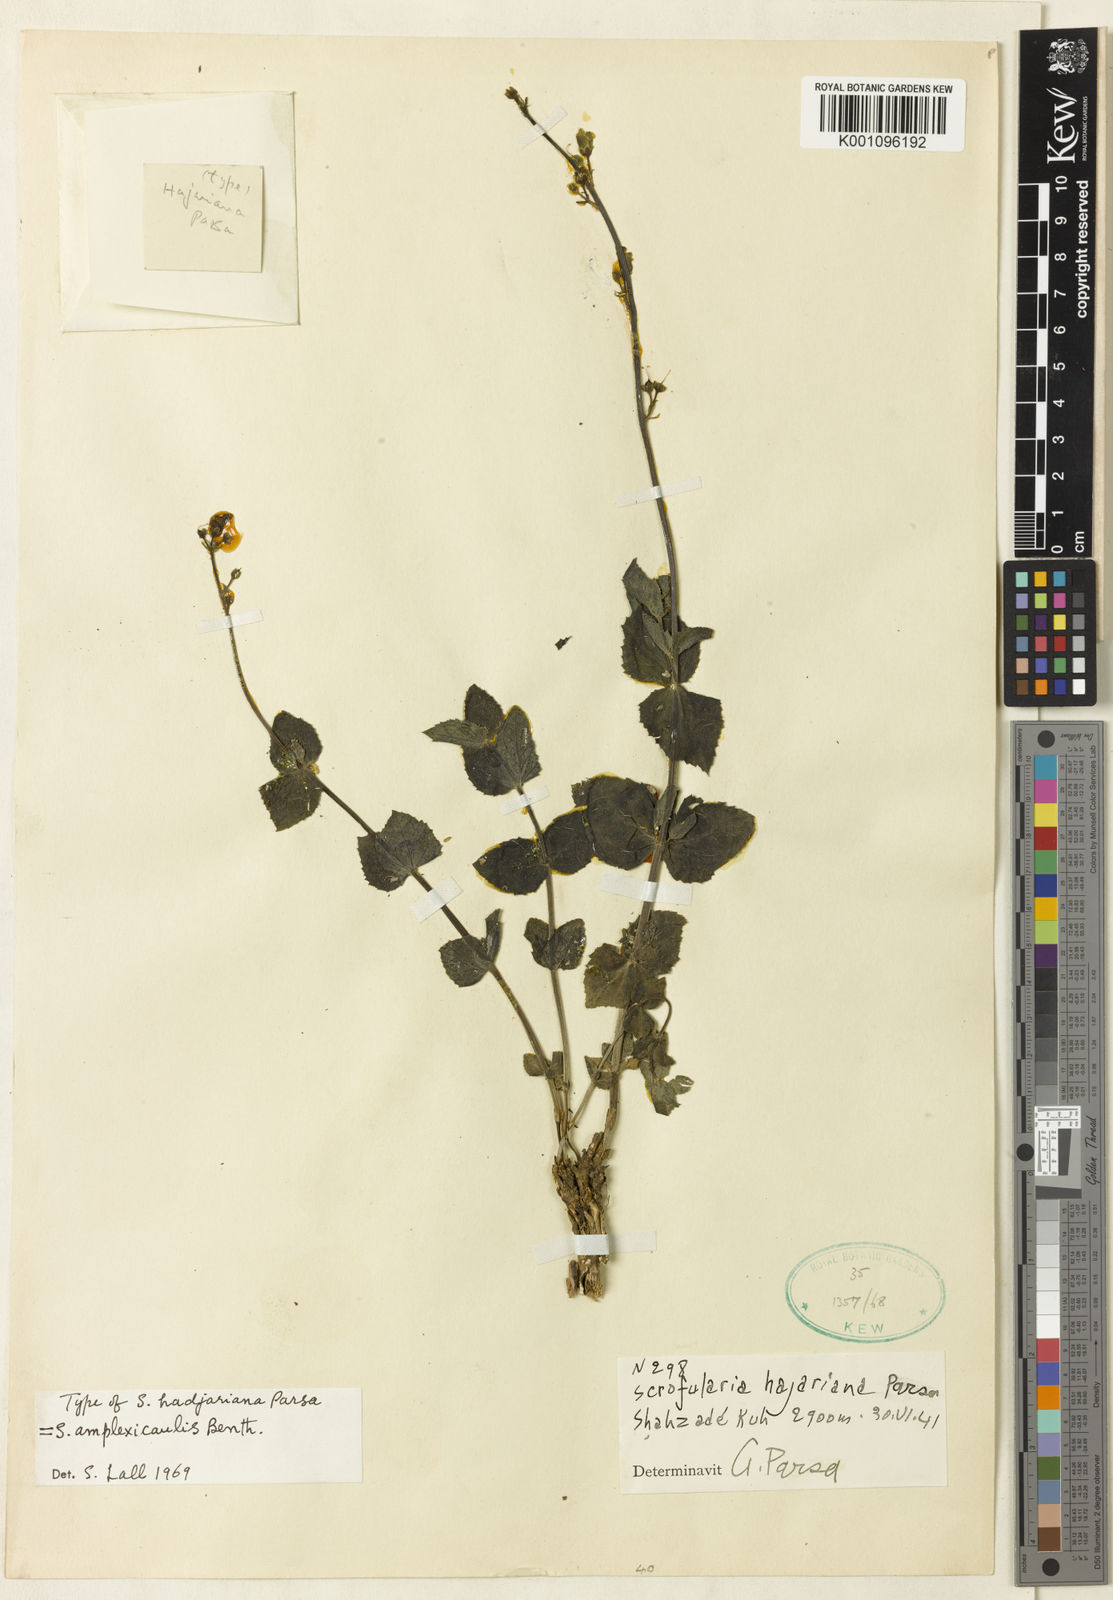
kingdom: Plantae
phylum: Tracheophyta
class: Magnoliopsida
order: Lamiales
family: Scrophulariaceae
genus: Scrophularia
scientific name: Scrophularia amplexicaulis
